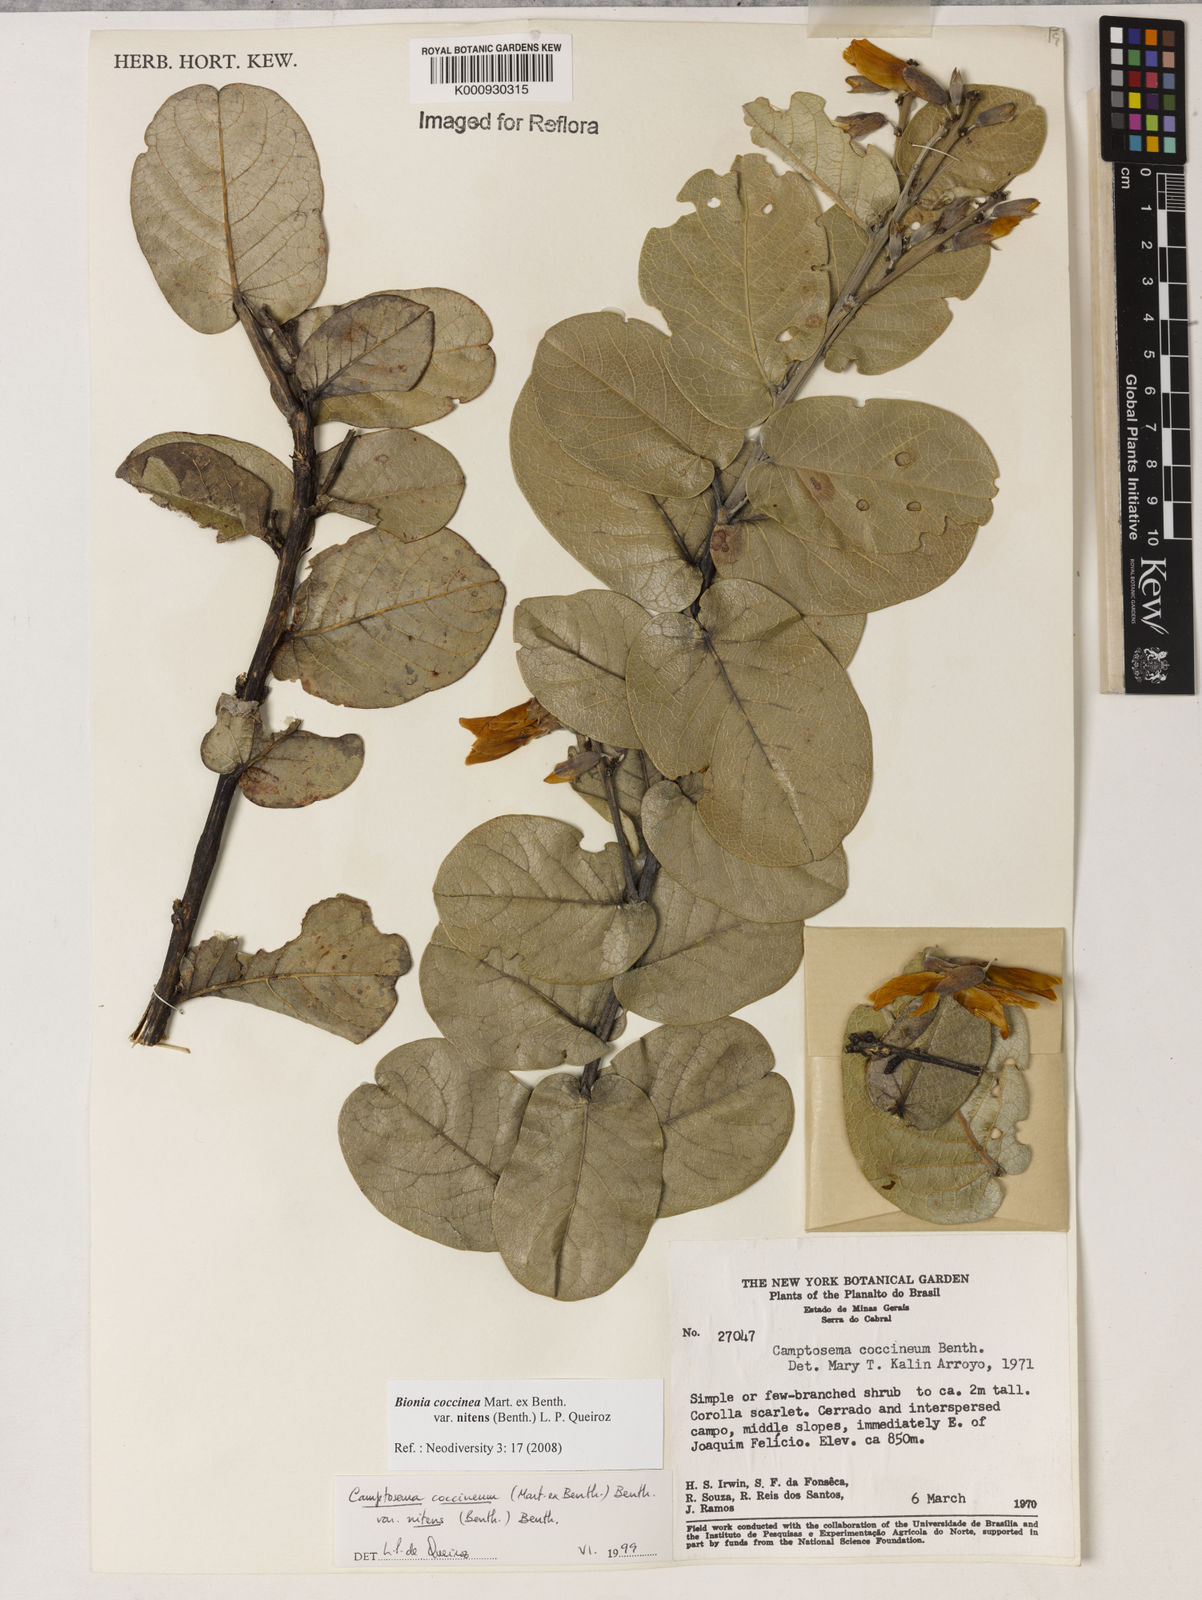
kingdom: Plantae
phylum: Tracheophyta
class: Magnoliopsida
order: Fabales
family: Fabaceae
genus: Camptosema
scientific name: Camptosema coccineum
